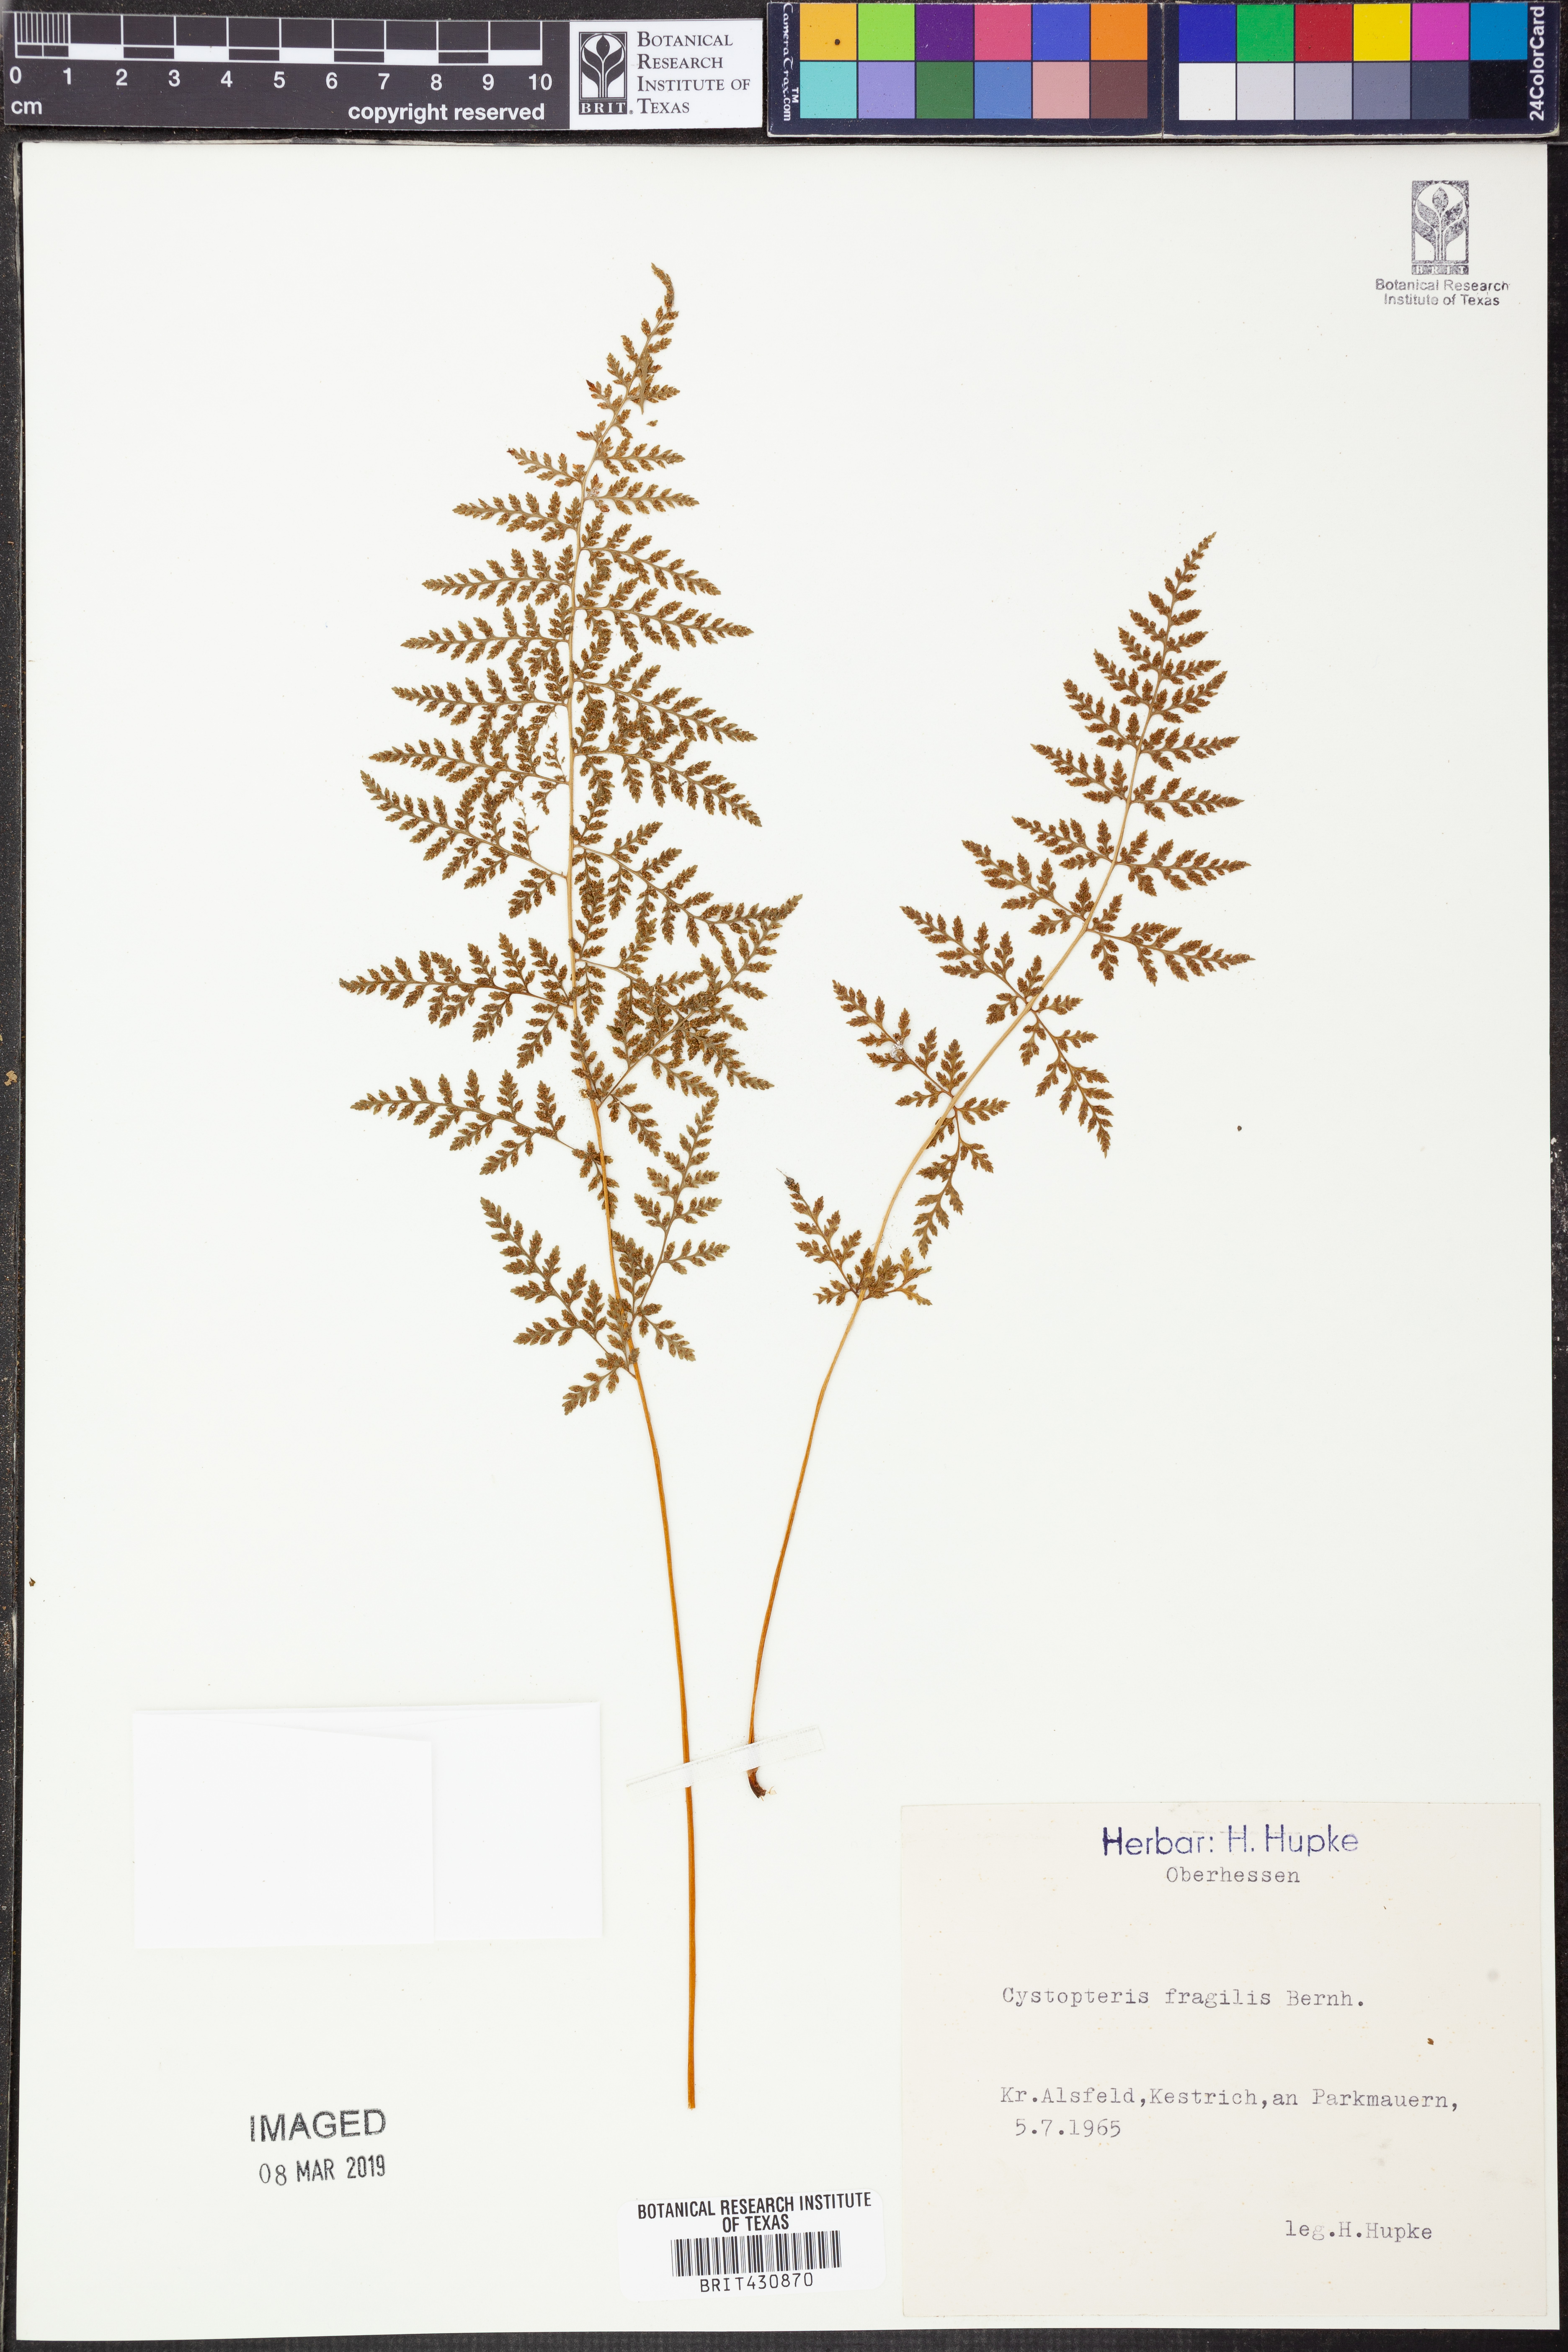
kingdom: Plantae
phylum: Tracheophyta
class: Polypodiopsida
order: Polypodiales
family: Cystopteridaceae
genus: Cystopteris
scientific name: Cystopteris fragilis
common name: Brittle bladder fern
